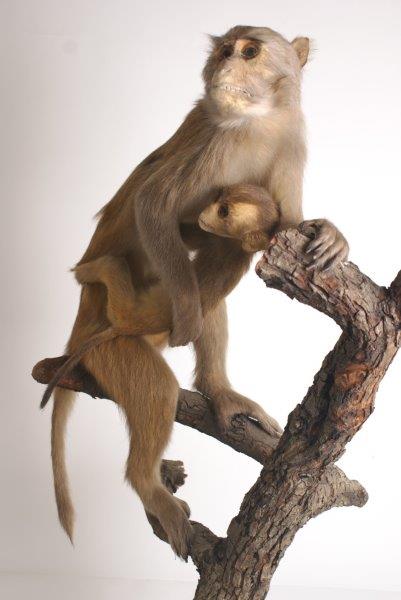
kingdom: Animalia
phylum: Chordata
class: Mammalia
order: Primates
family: Cercopithecidae
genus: Macaca
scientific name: Macaca
